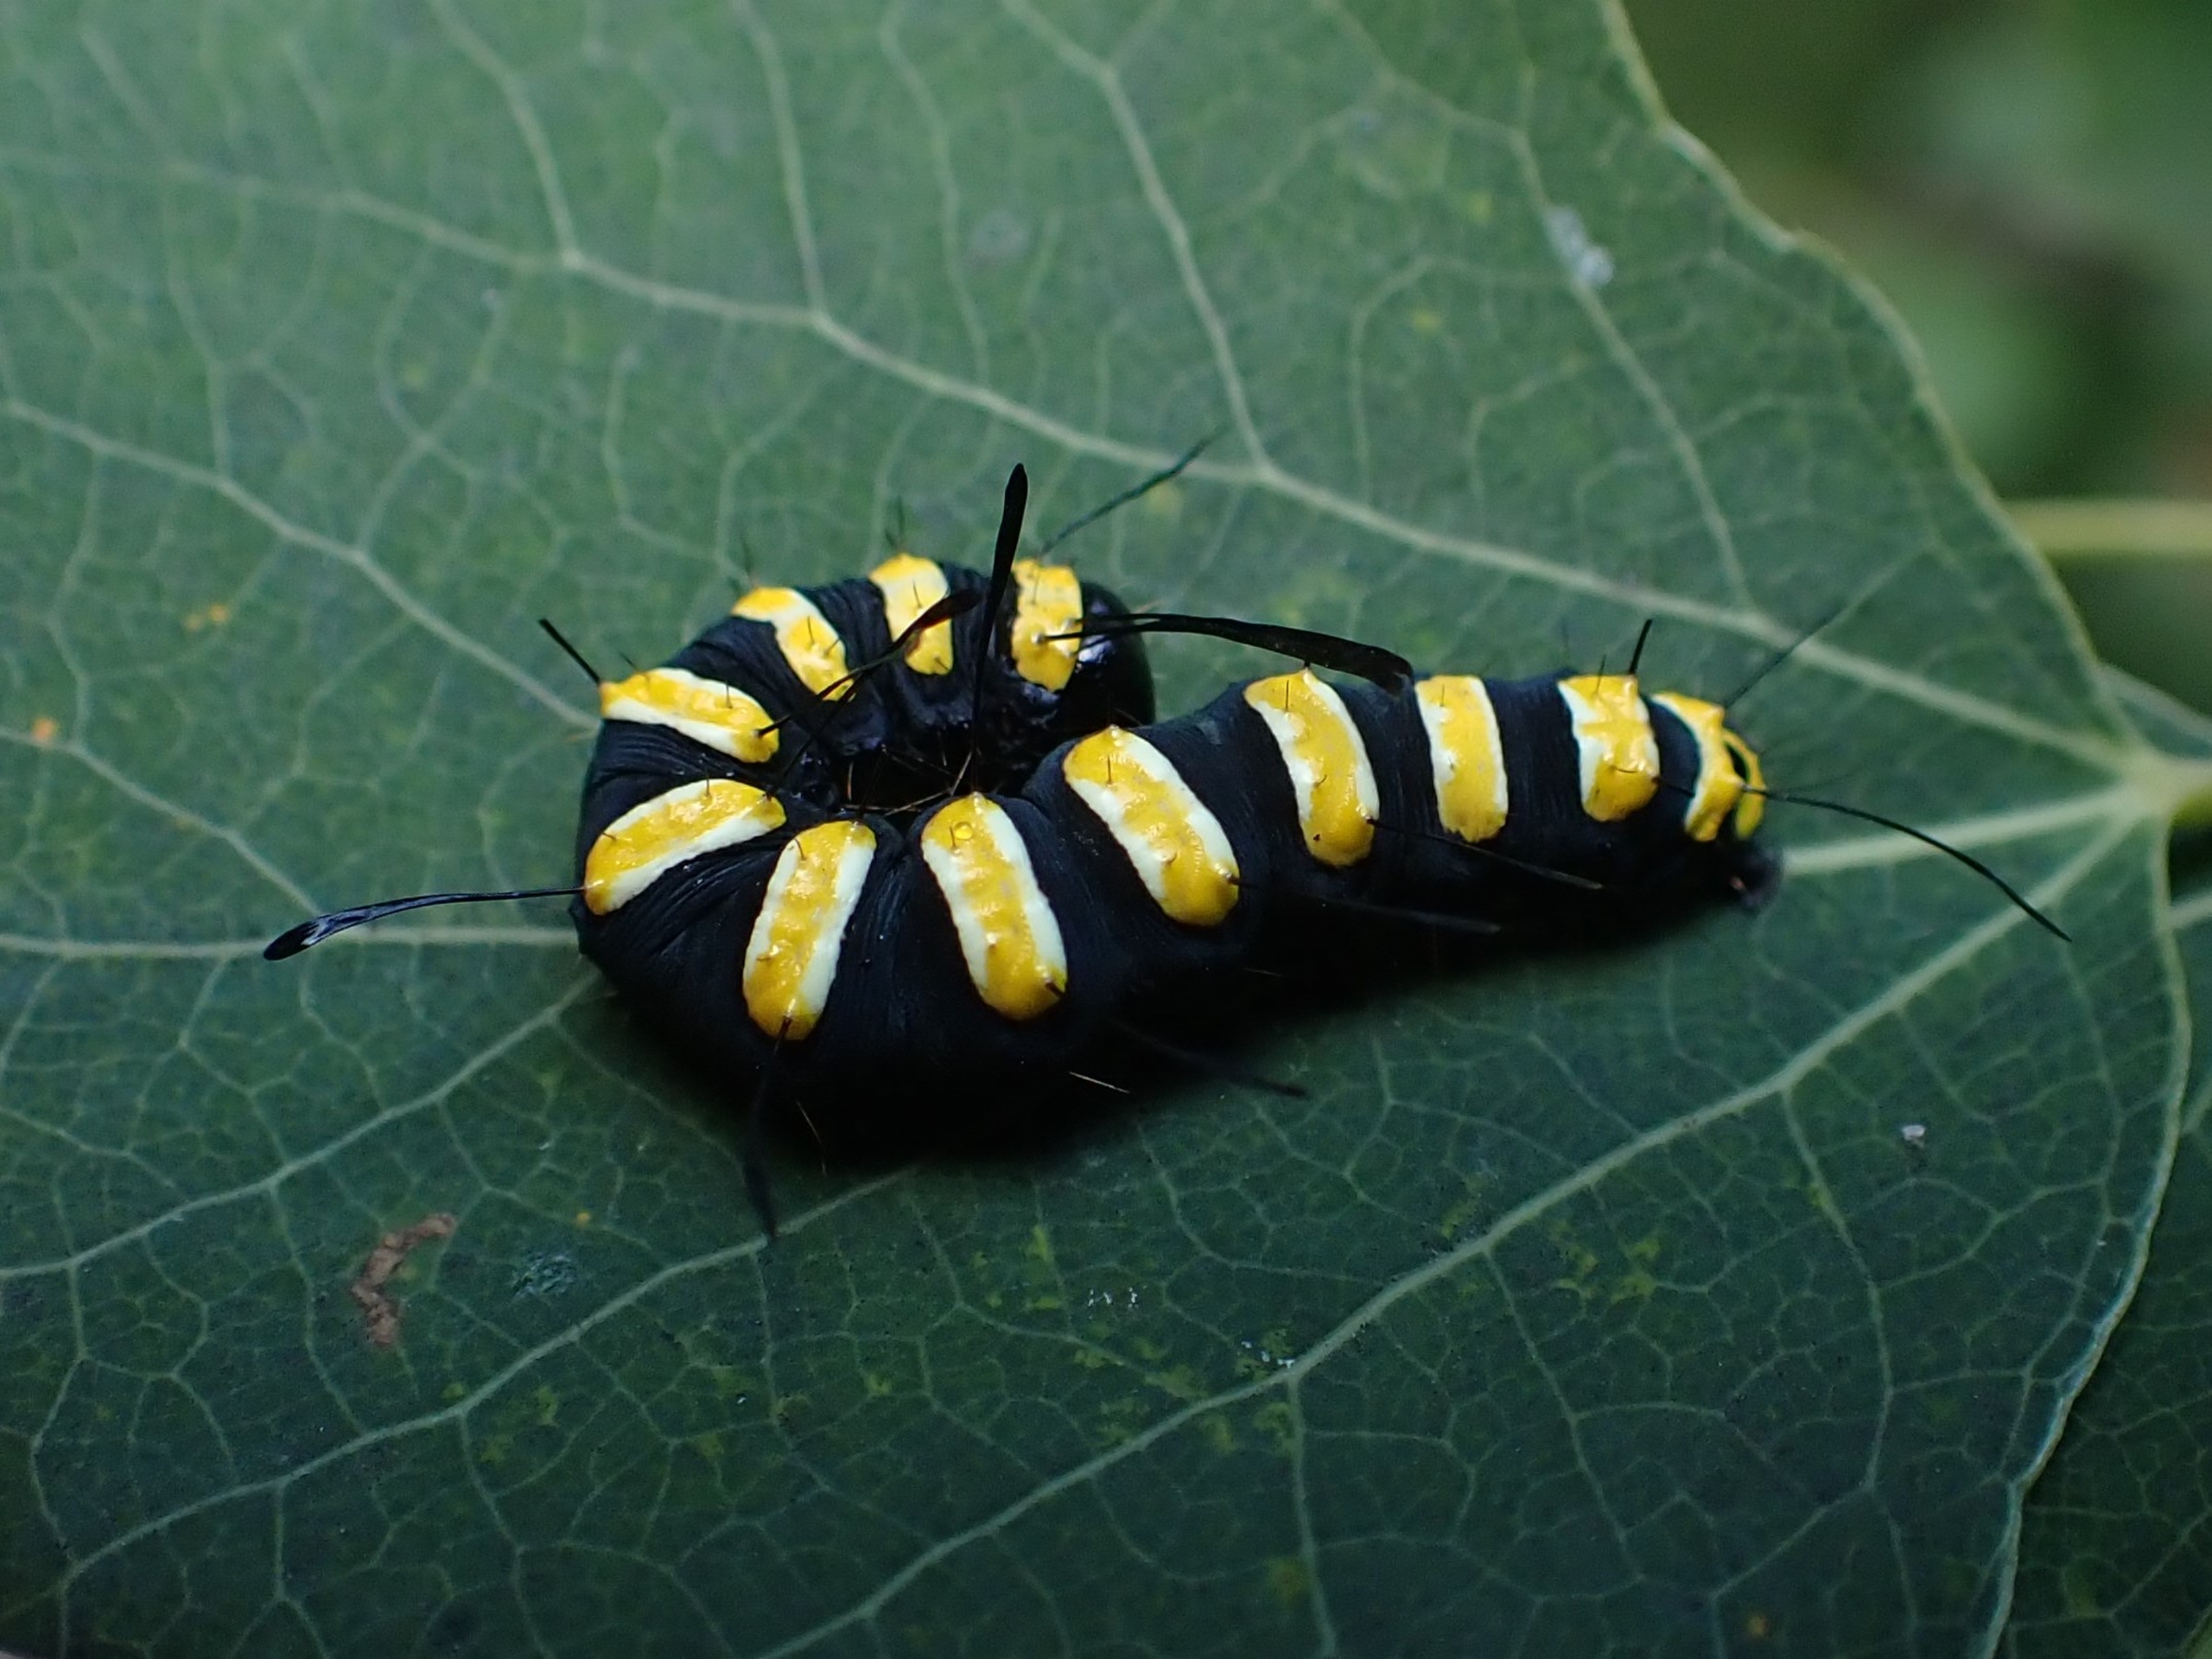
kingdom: Animalia
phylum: Arthropoda
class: Insecta
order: Lepidoptera
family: Noctuidae
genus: Acronicta
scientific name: Acronicta alni
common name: Kølleugle
